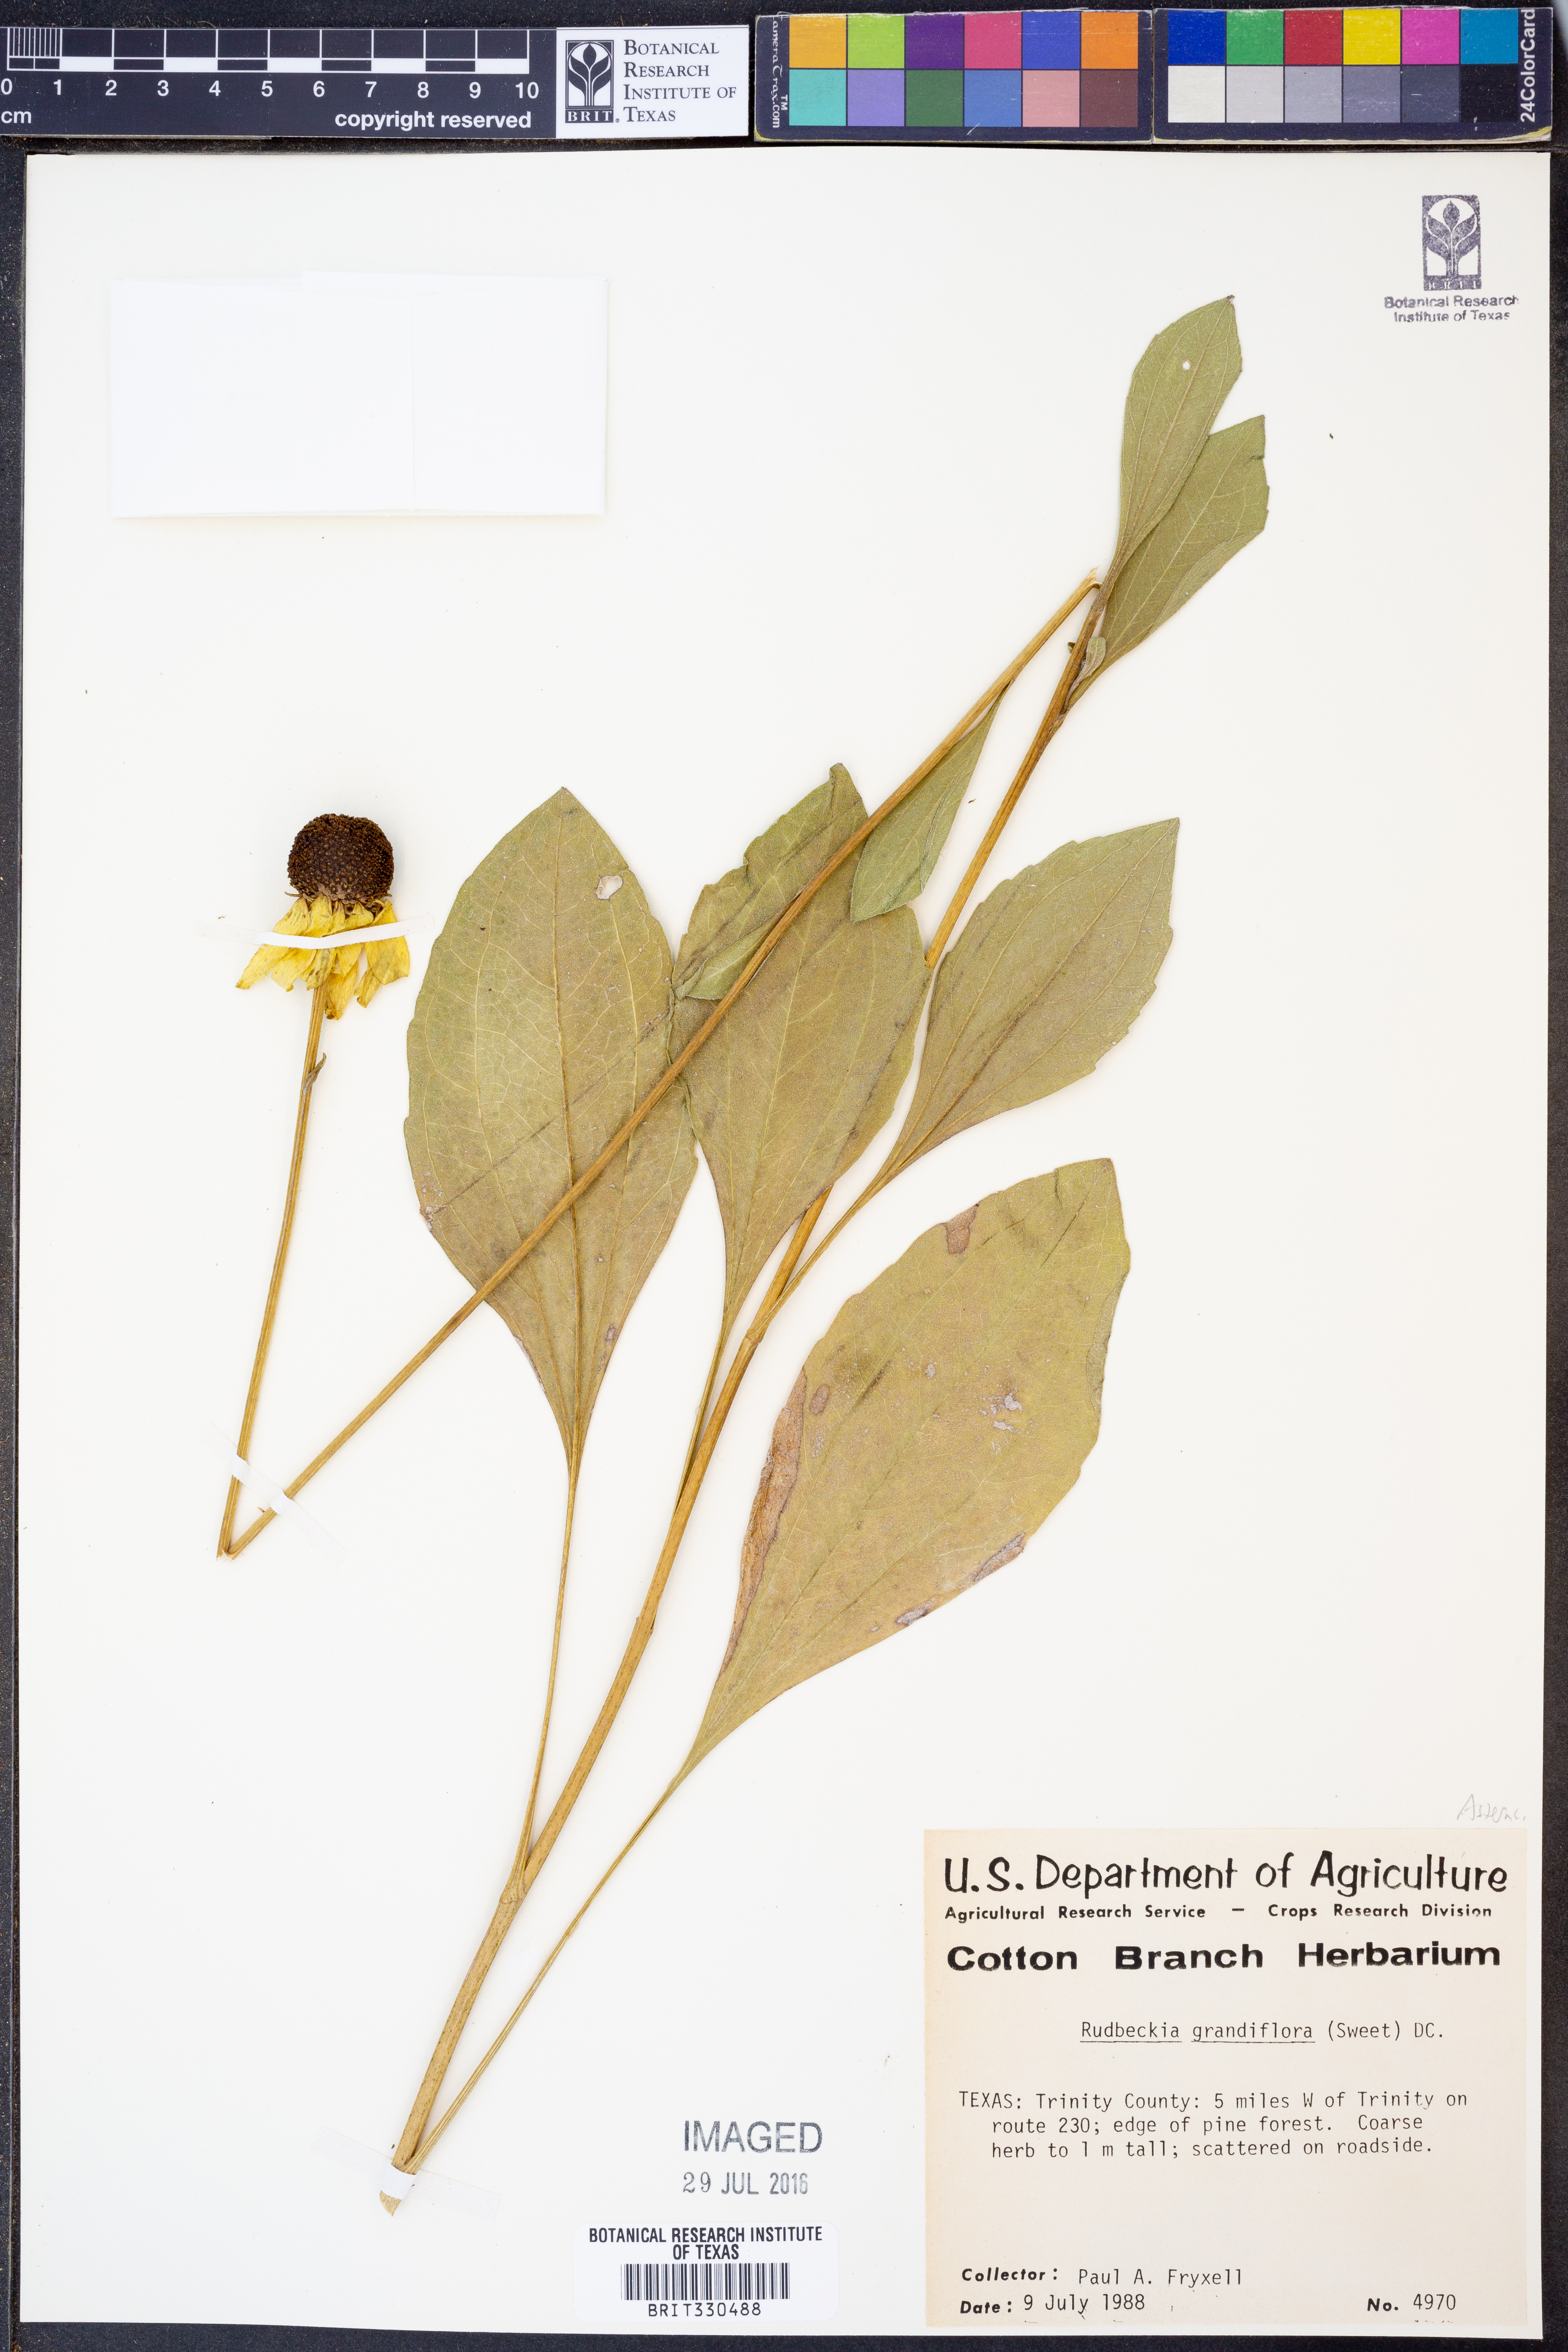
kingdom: Plantae
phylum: Tracheophyta
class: Magnoliopsida
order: Asterales
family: Asteraceae
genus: Rudbeckia
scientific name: Rudbeckia grandiflora
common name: Large-flowered coneflower
